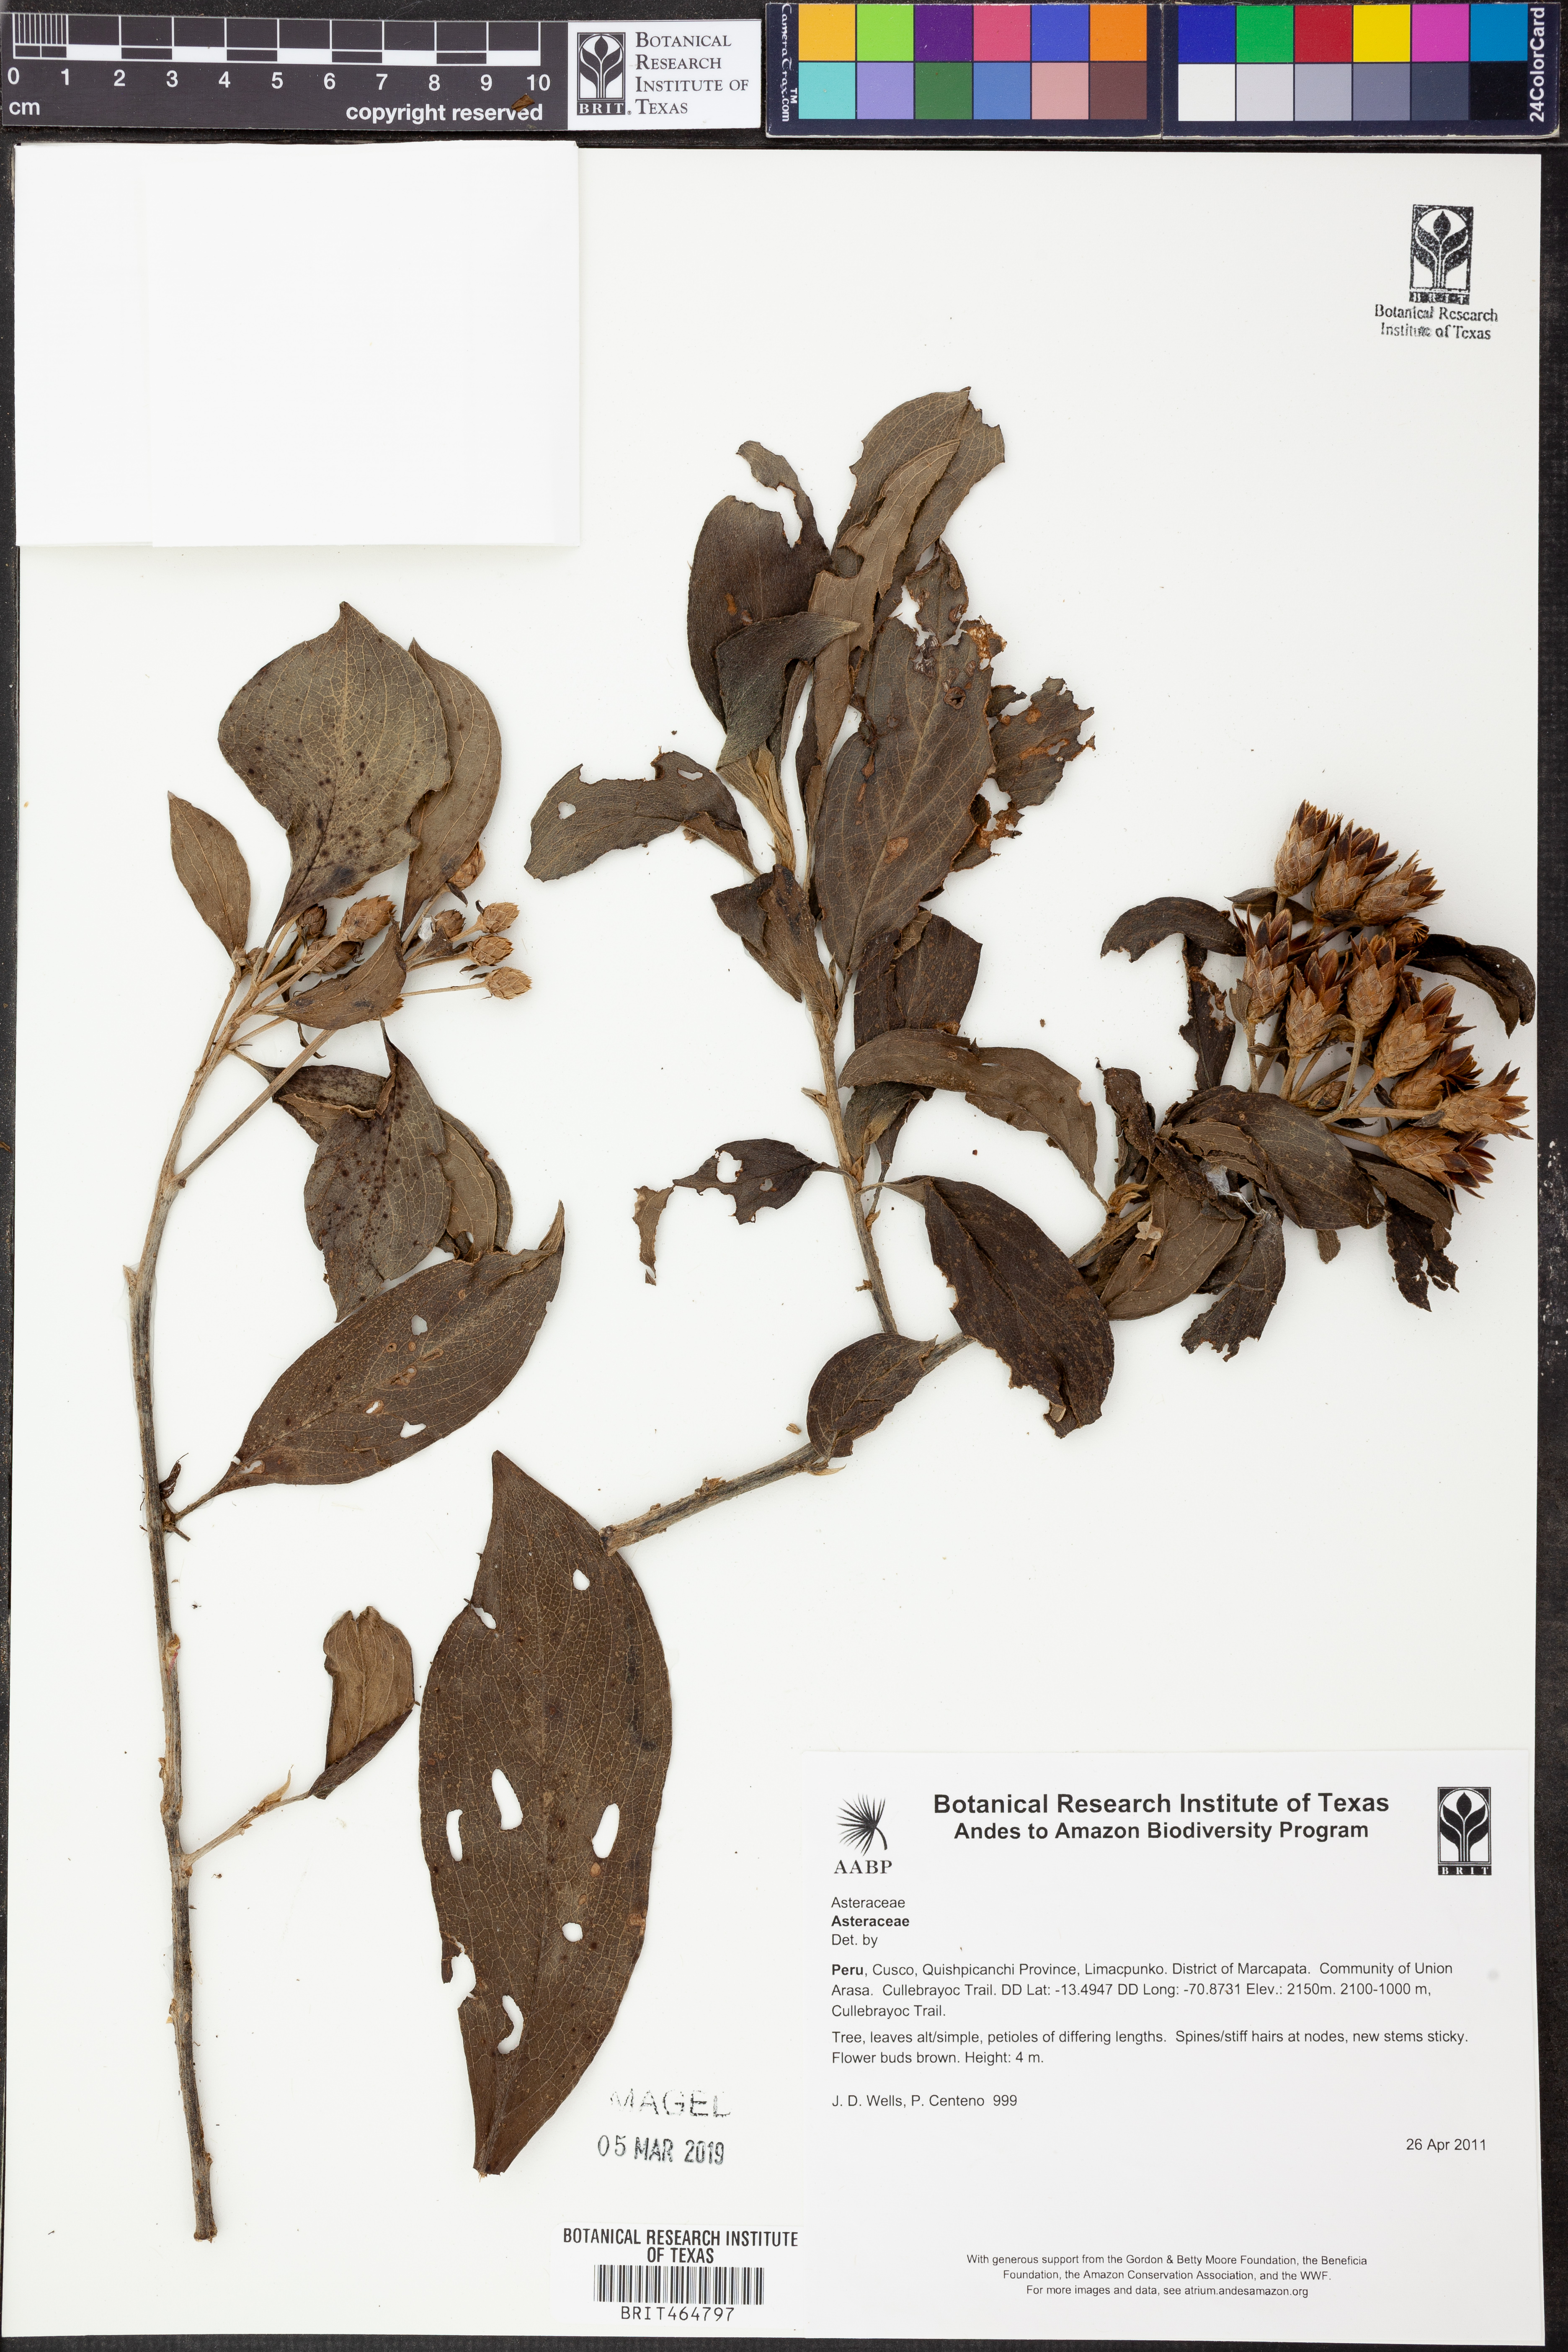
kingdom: Plantae
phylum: Tracheophyta
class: Magnoliopsida
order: Asterales
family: Asteraceae
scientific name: Asteraceae
